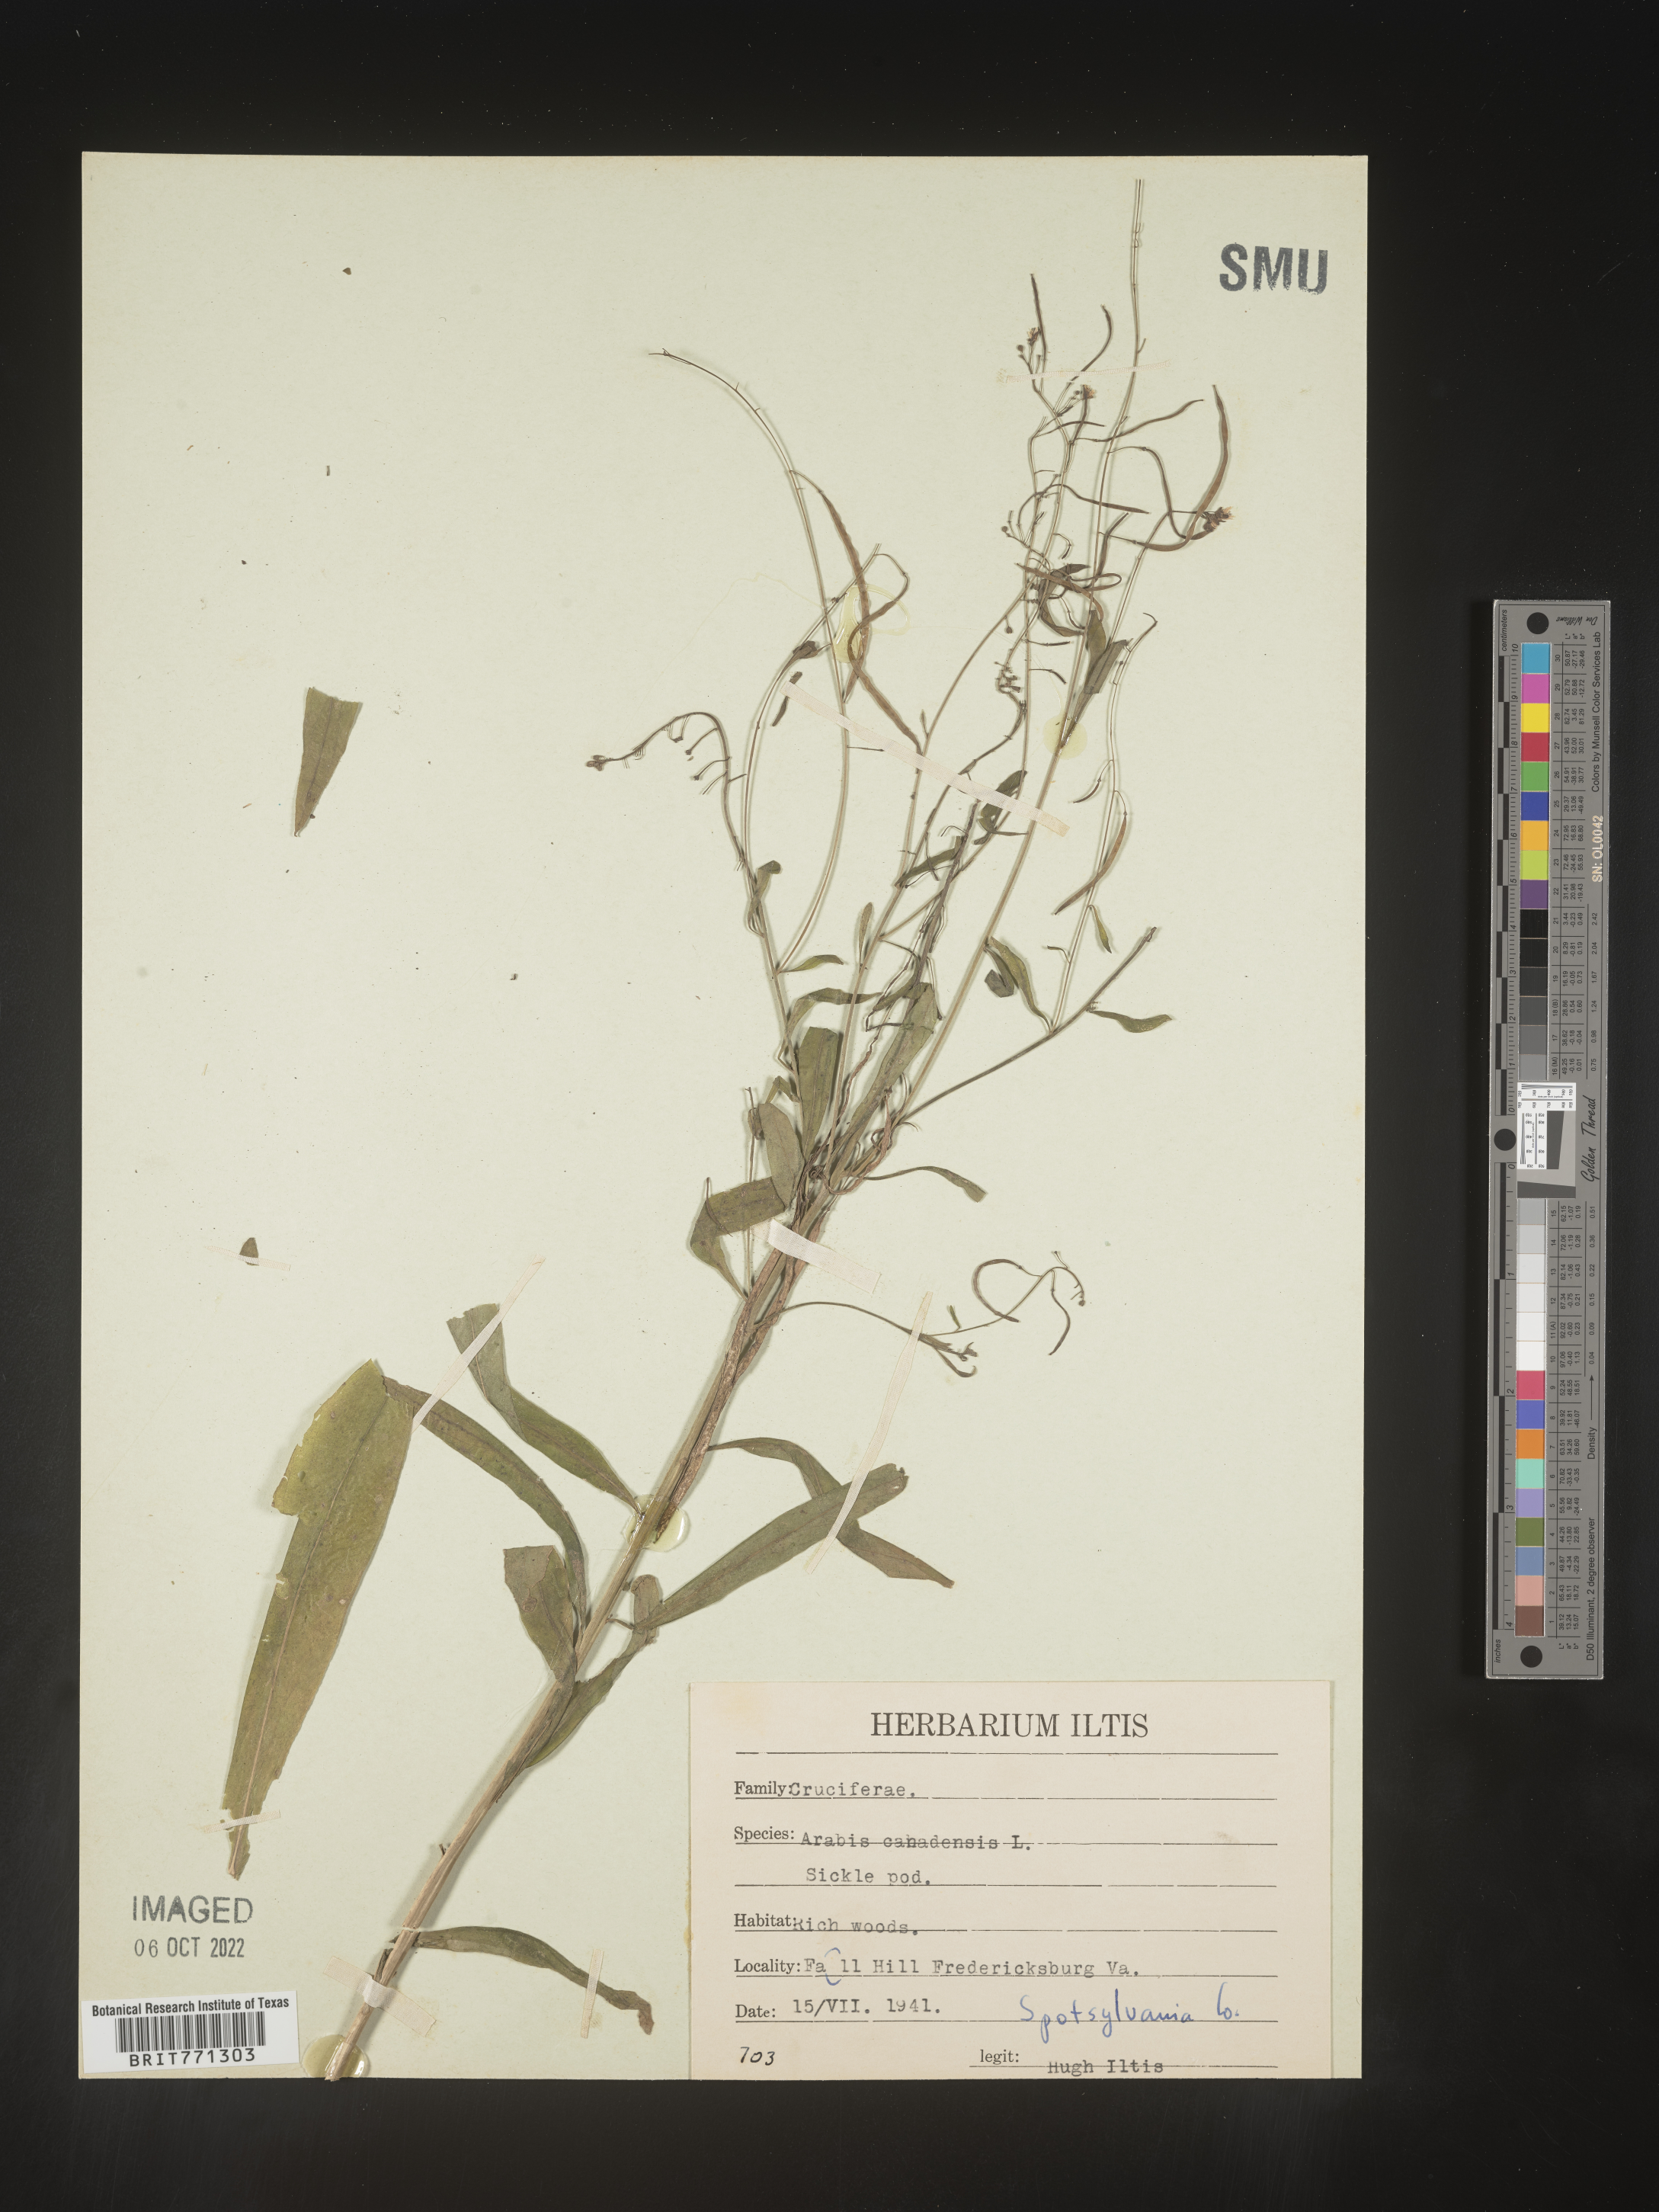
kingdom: Plantae
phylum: Tracheophyta
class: Magnoliopsida
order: Brassicales
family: Brassicaceae
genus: Borodinia
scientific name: Borodinia canadensis
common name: Sicklepod
